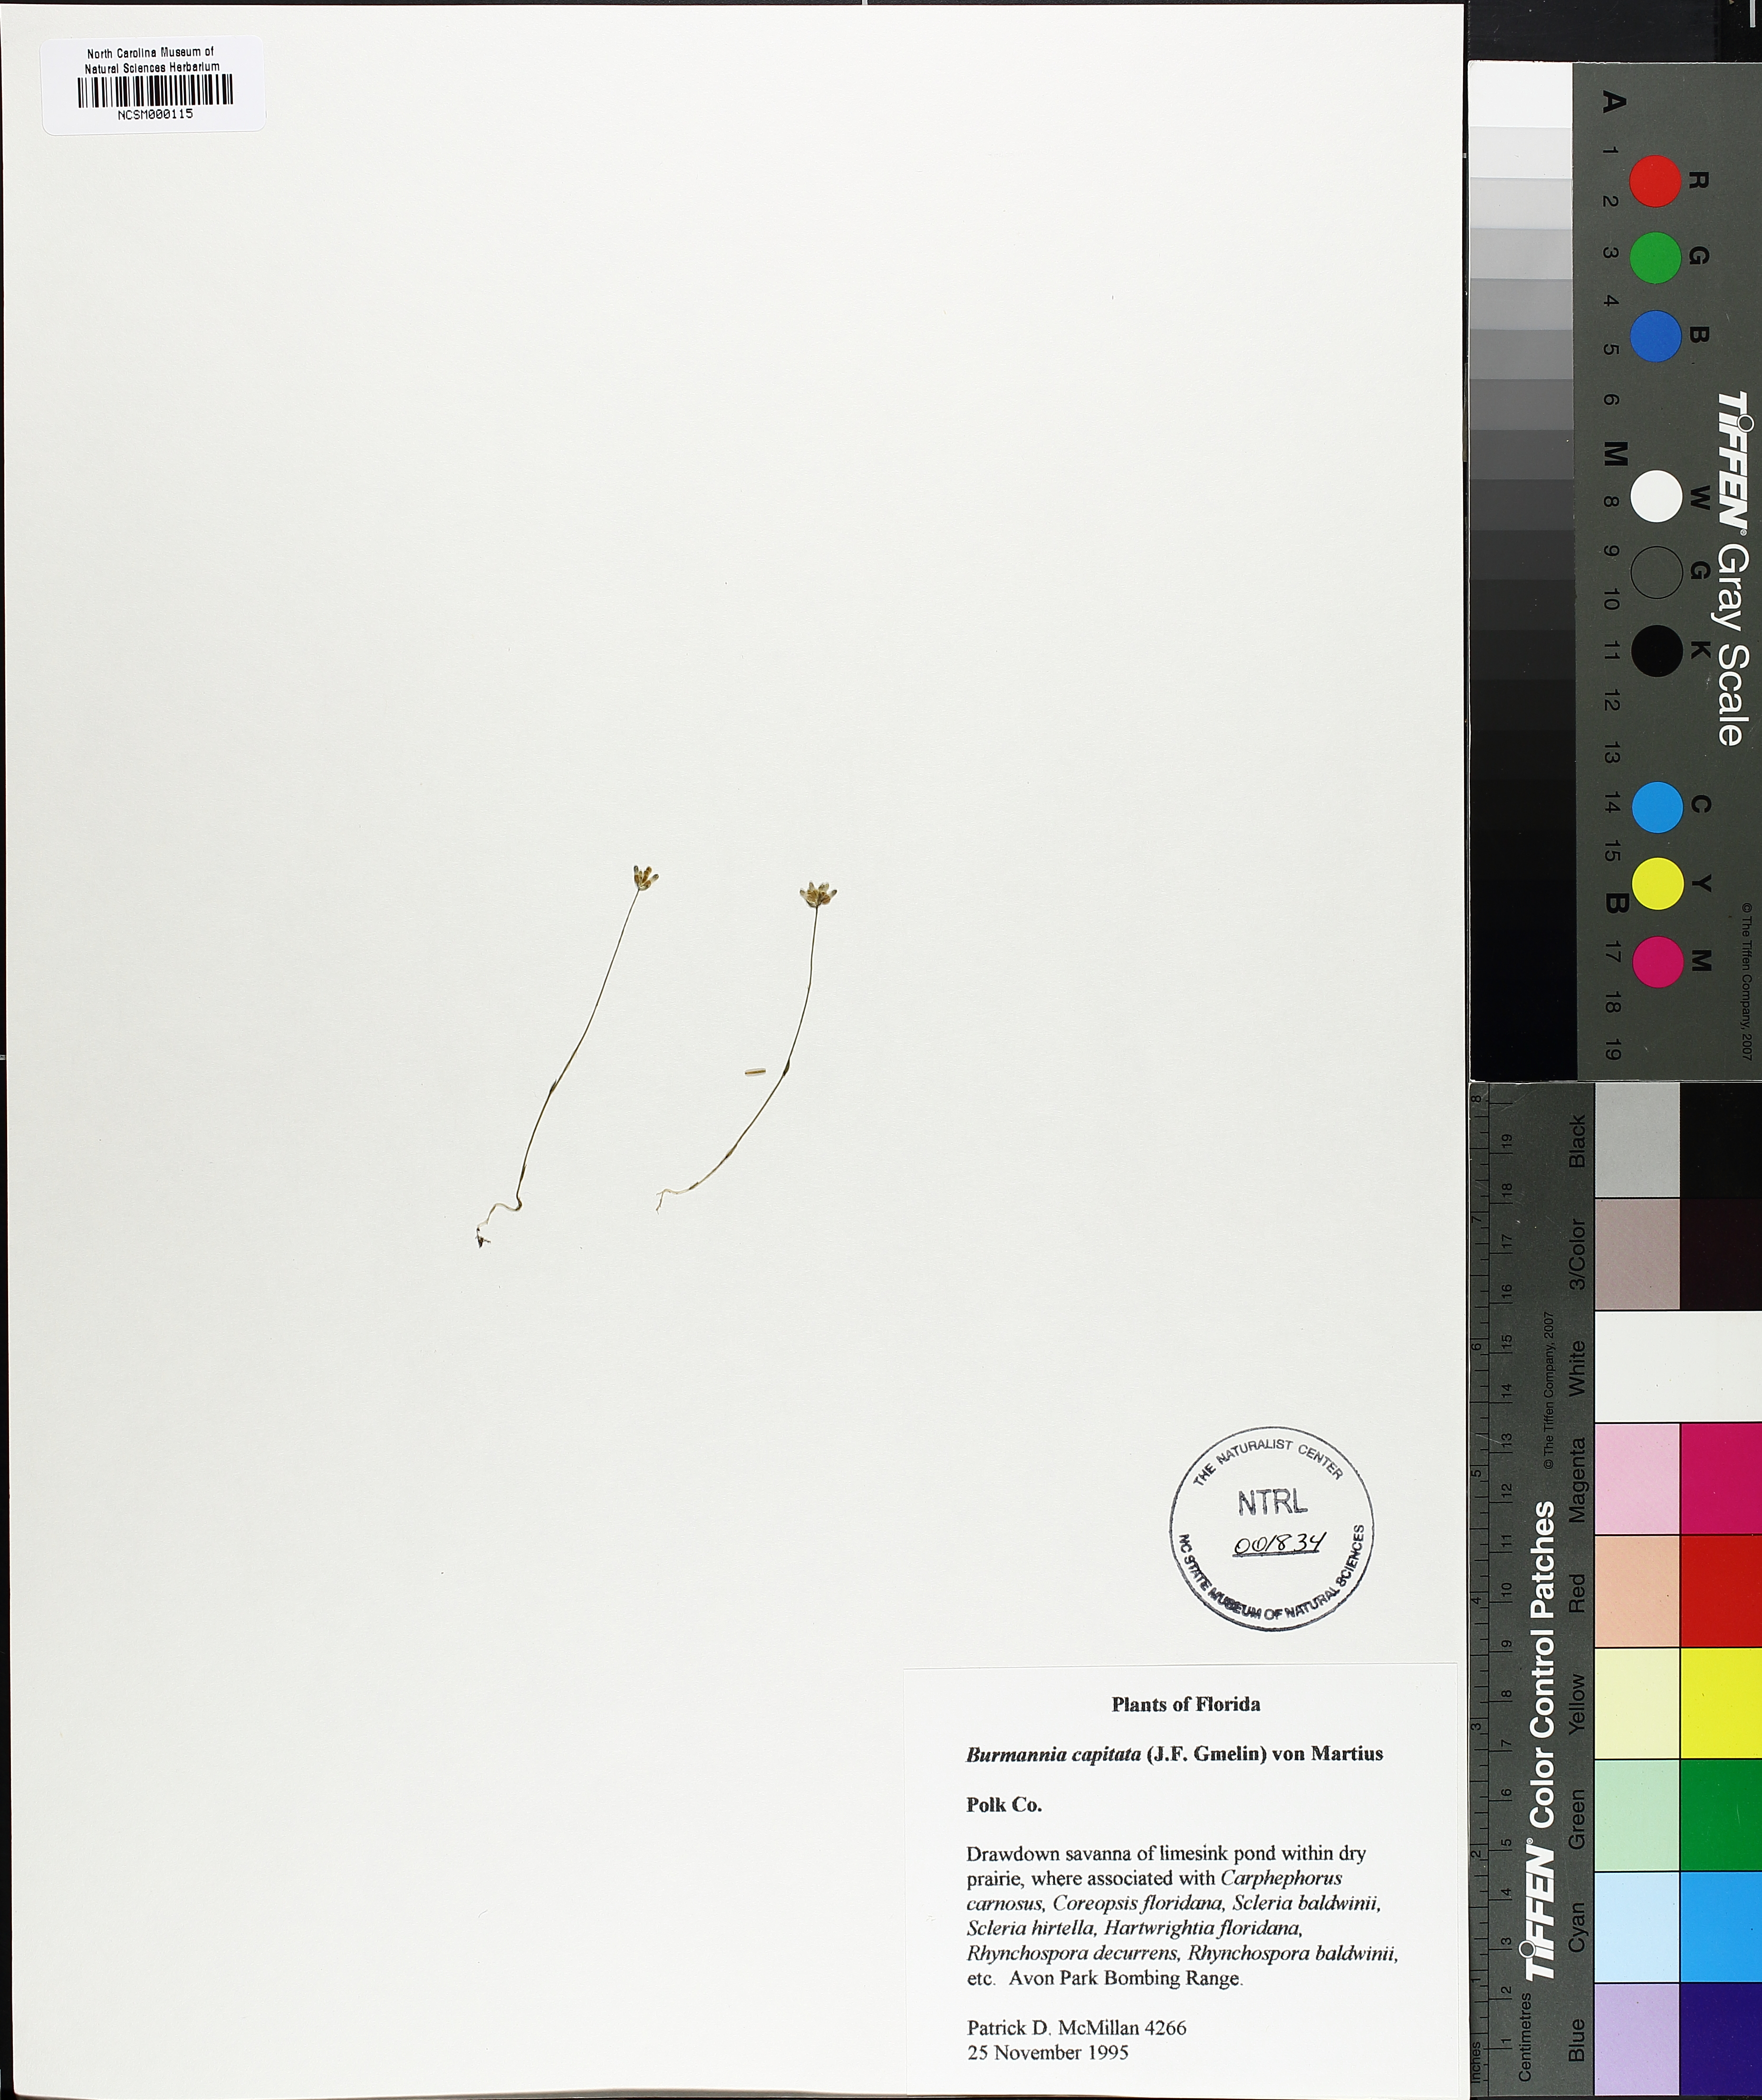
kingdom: Plantae
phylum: Tracheophyta
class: Liliopsida
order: Dioscoreales
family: Burmanniaceae
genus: Burmannia
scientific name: Burmannia capitata
